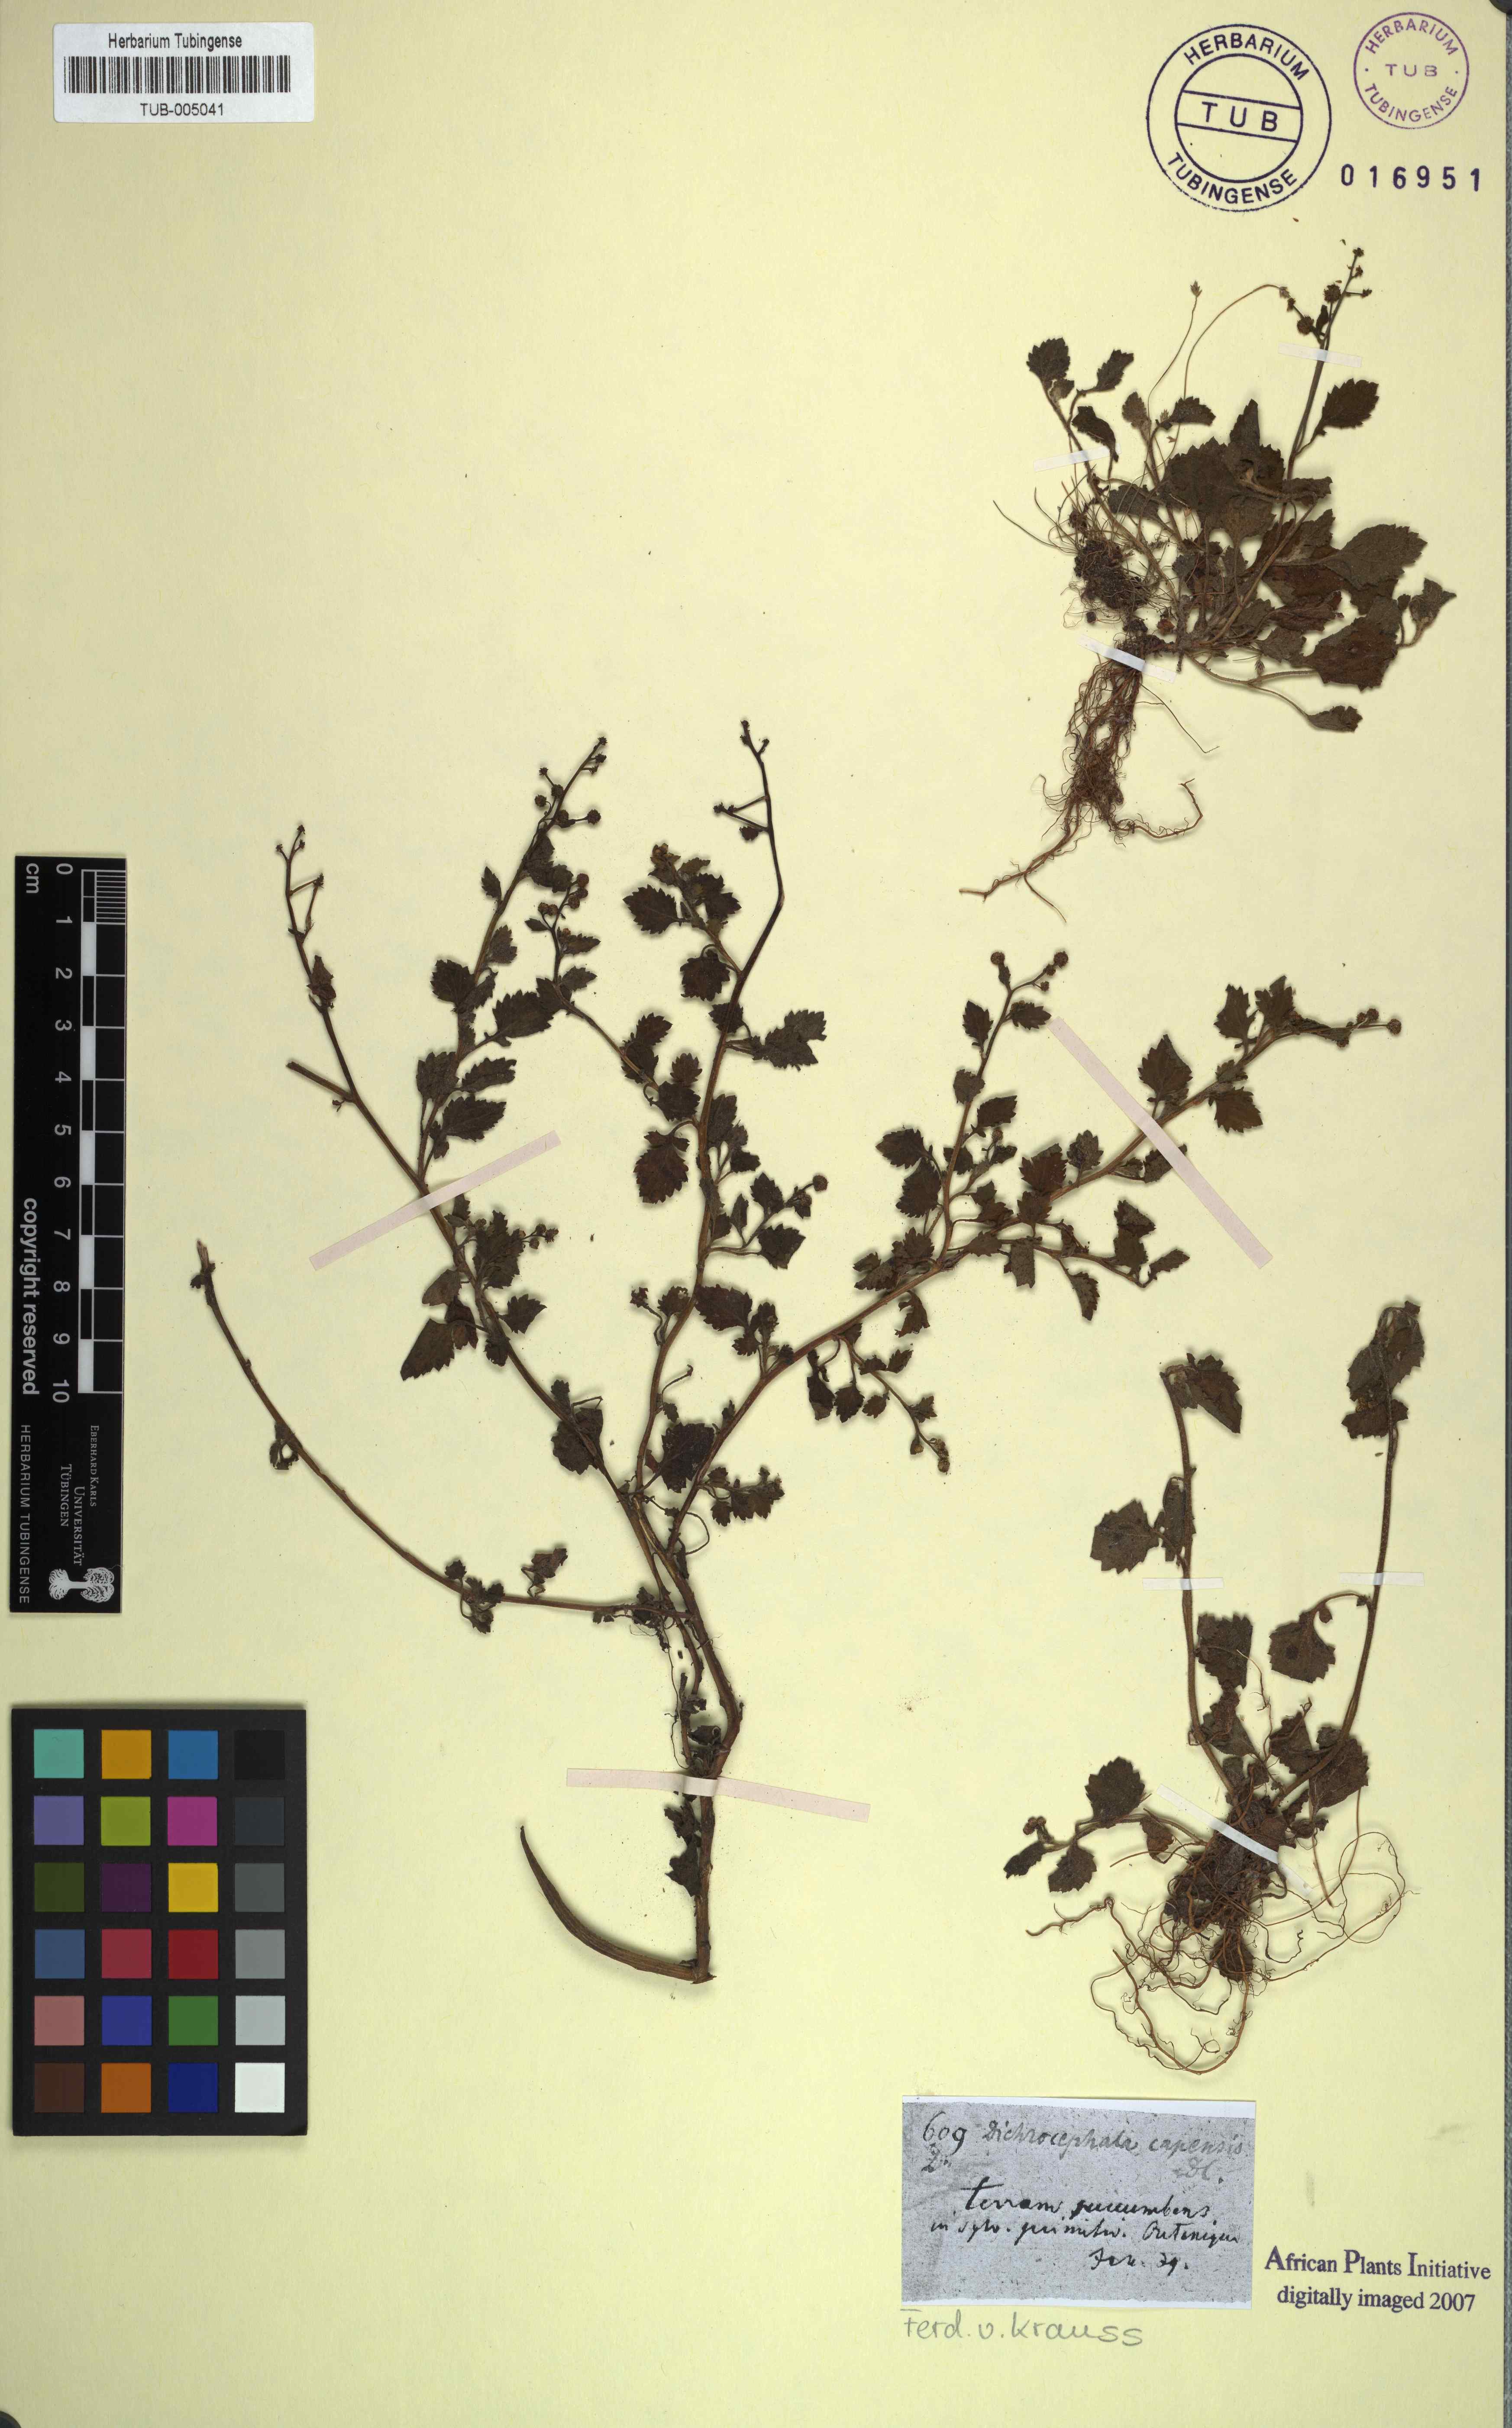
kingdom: Plantae
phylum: Tracheophyta
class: Magnoliopsida
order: Asterales
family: Asteraceae
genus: Dichrocephala
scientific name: Dichrocephala integrifolia
